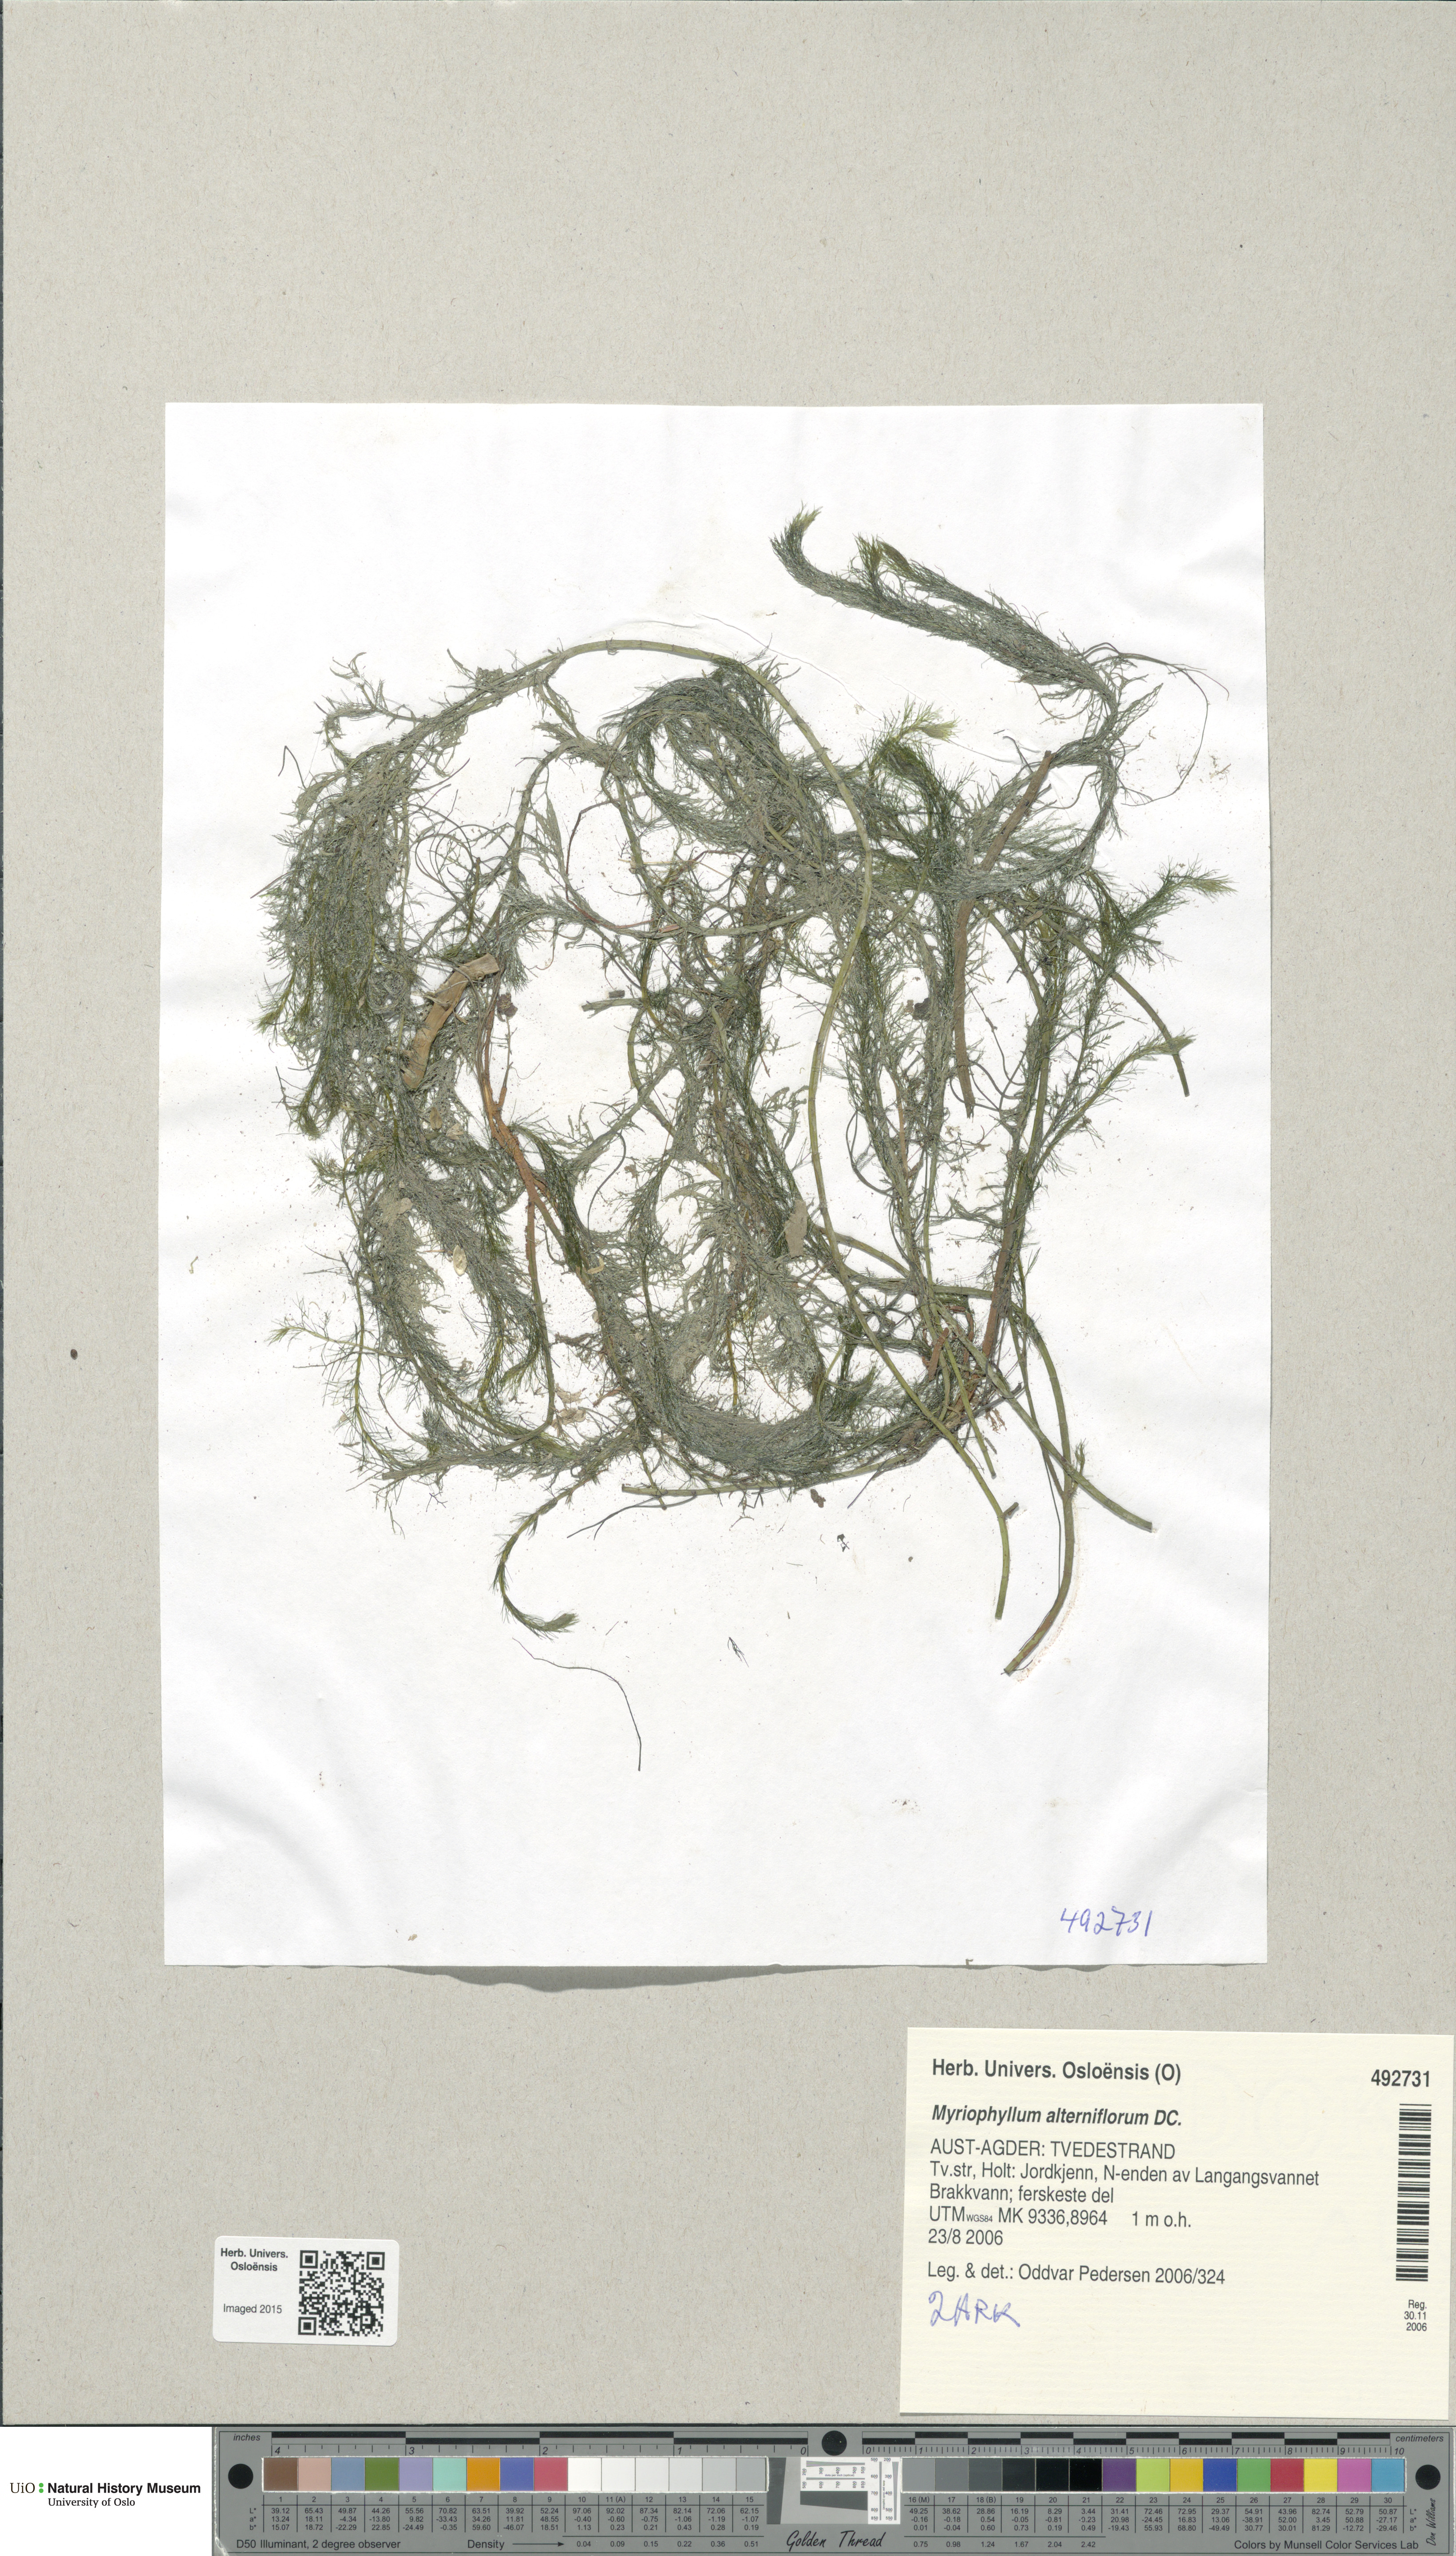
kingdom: Plantae
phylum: Tracheophyta
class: Magnoliopsida
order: Saxifragales
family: Haloragaceae
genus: Myriophyllum
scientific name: Myriophyllum alterniflorum
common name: Alternate water-milfoil
